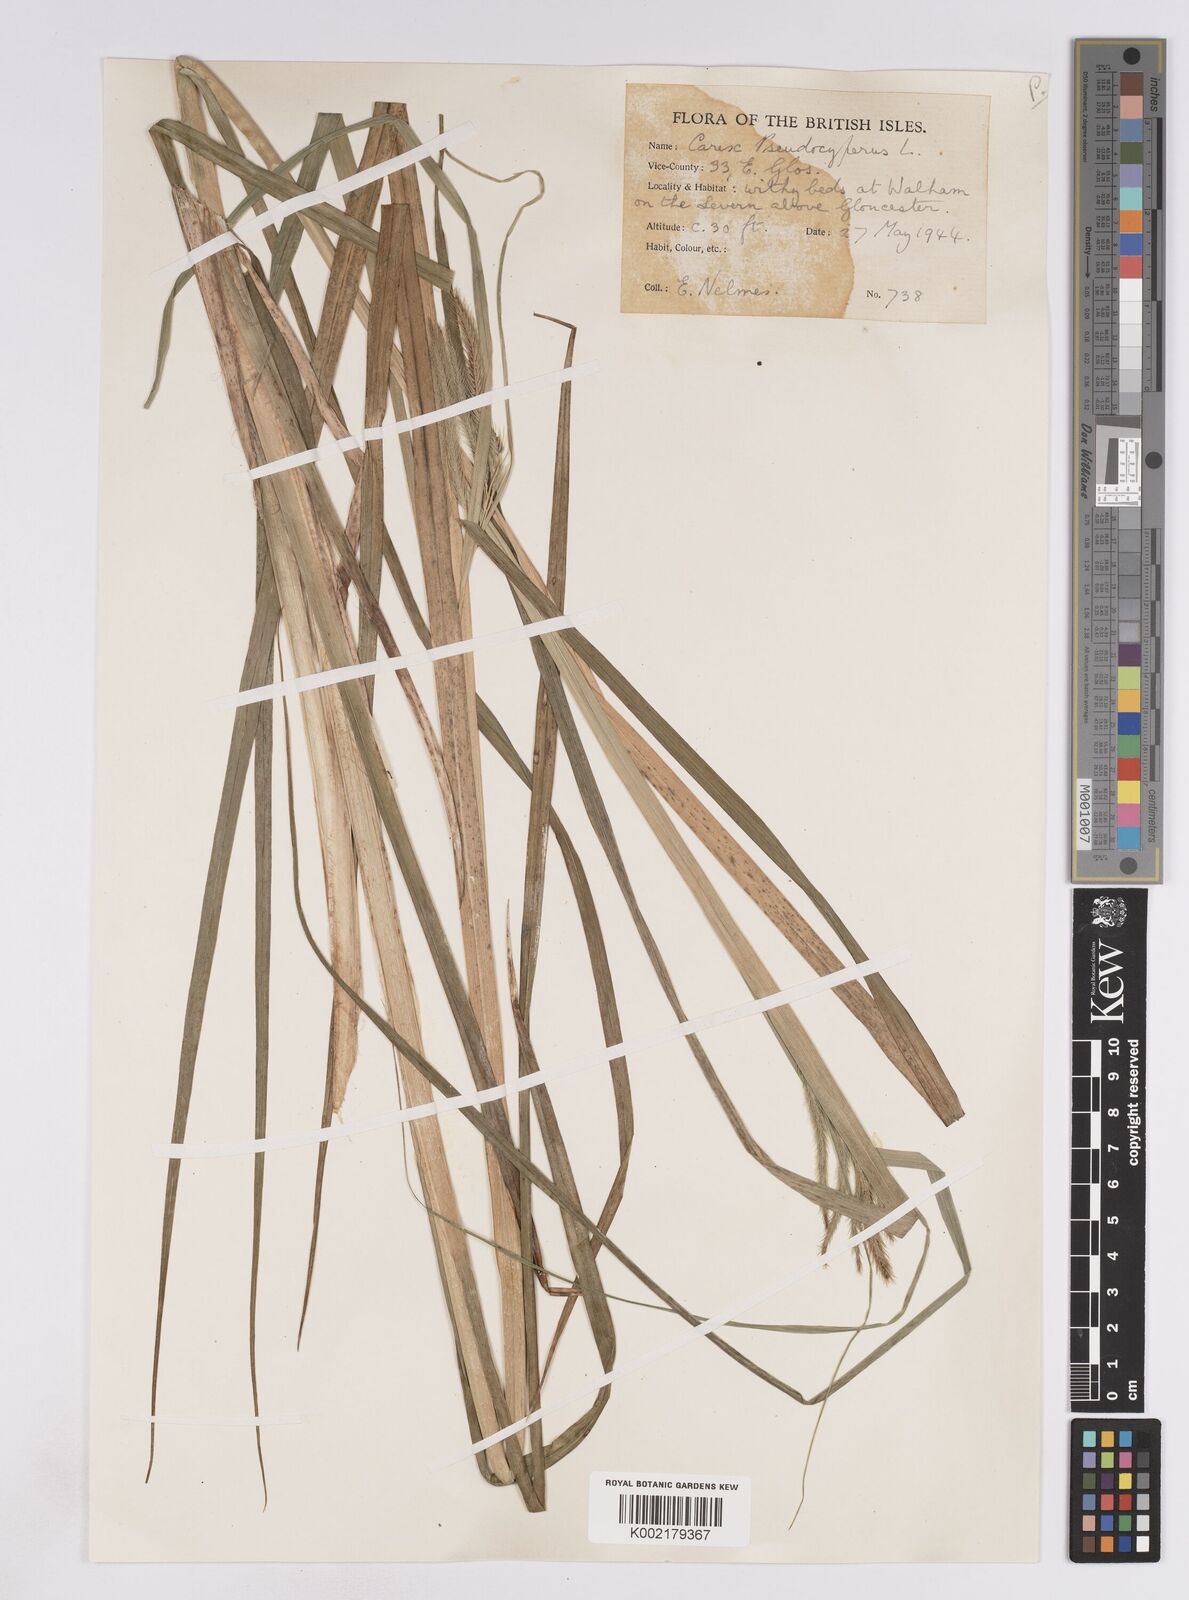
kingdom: Plantae
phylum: Tracheophyta
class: Liliopsida
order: Poales
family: Cyperaceae
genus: Carex
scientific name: Carex pseudocyperus
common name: Cyperus sedge
